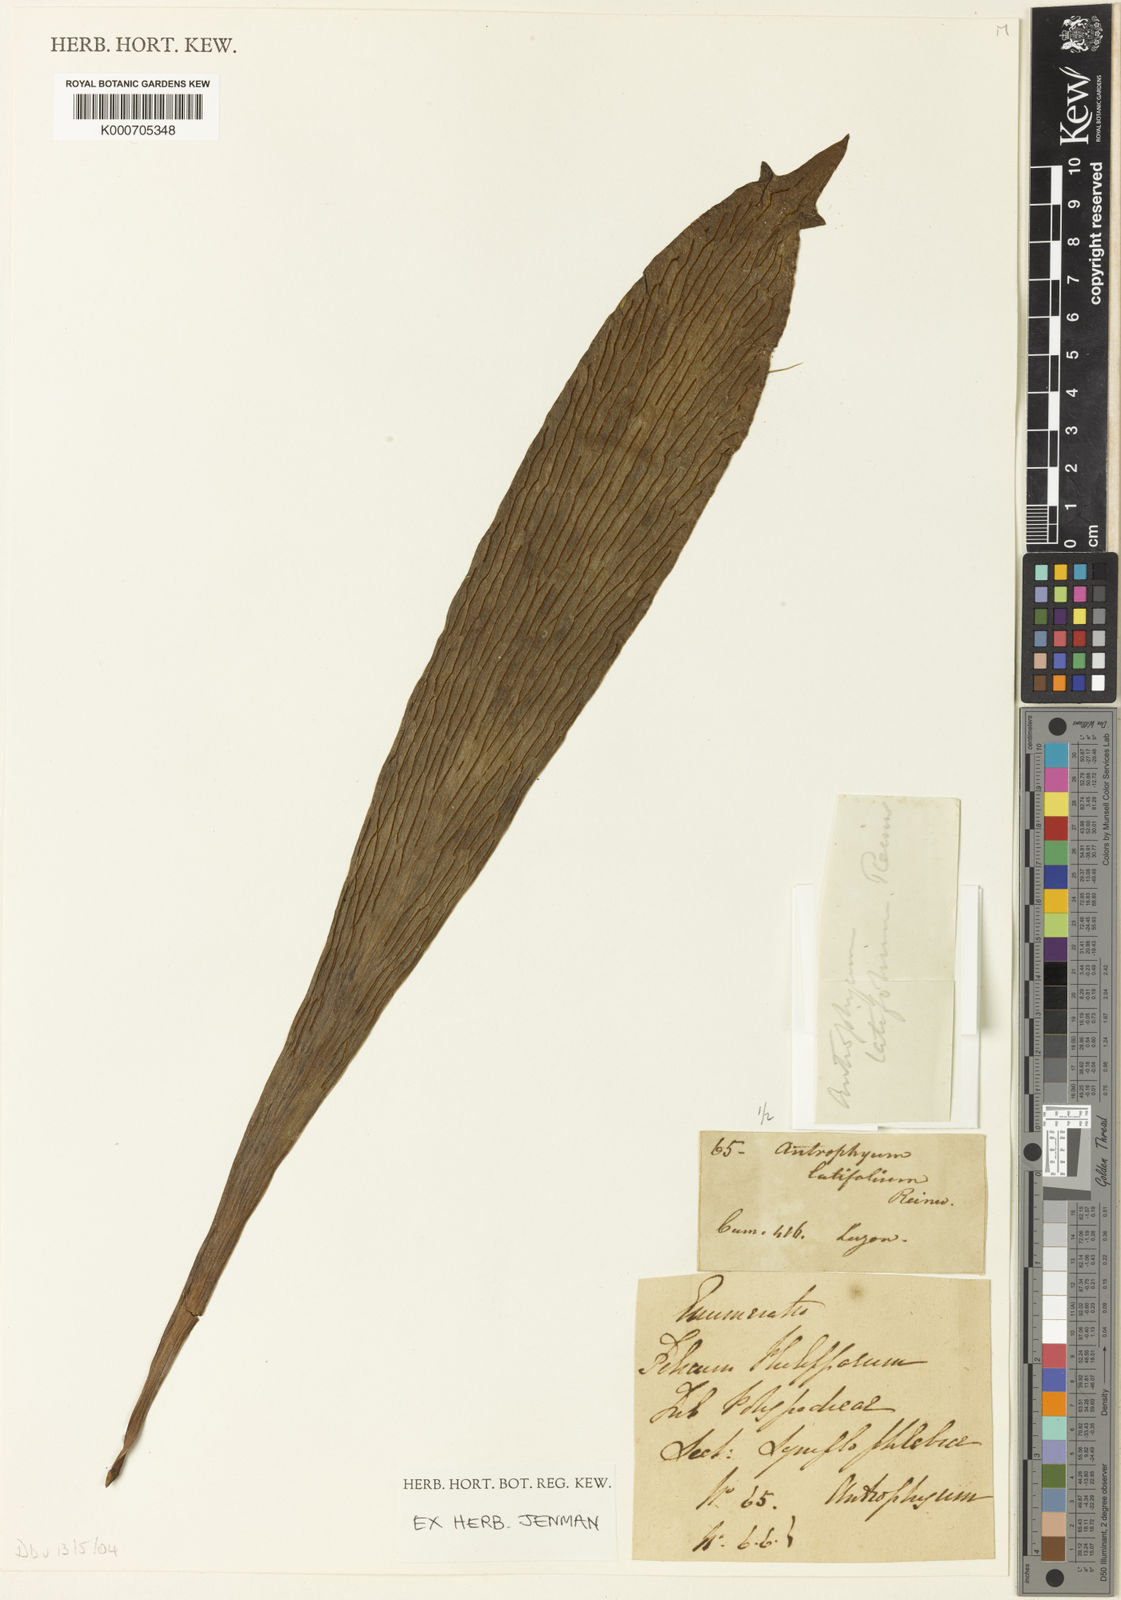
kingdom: Plantae
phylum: Tracheophyta
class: Polypodiopsida
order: Polypodiales
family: Pteridaceae
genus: Antrophyum
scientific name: Antrophyum
